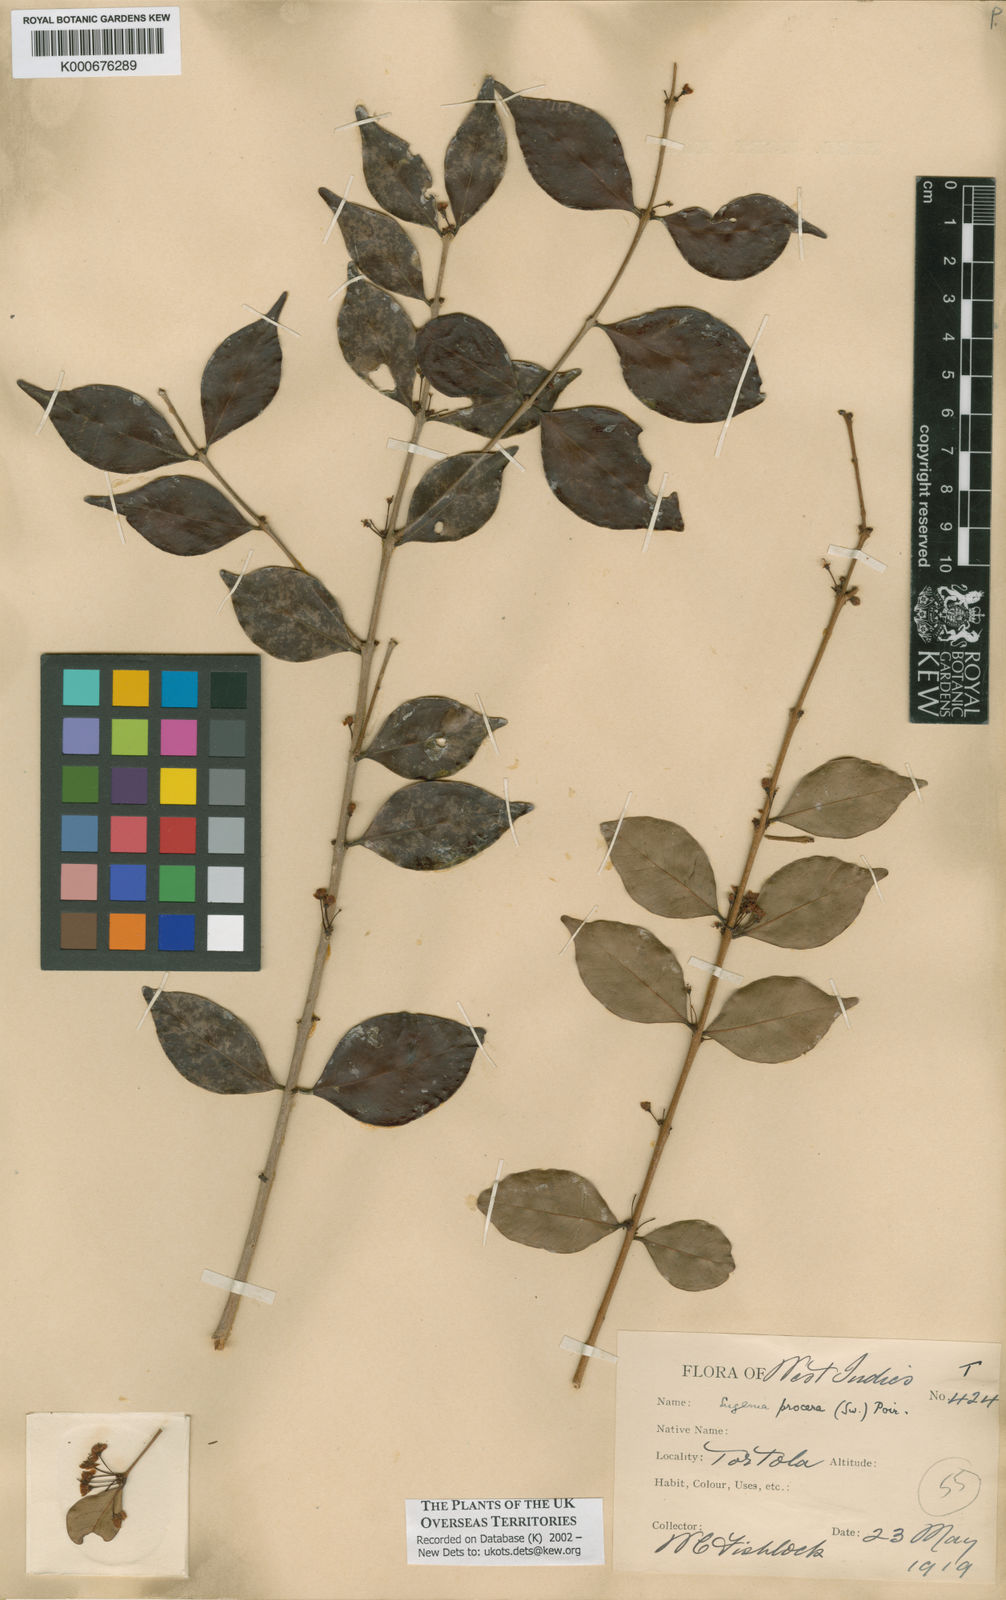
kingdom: Plantae
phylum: Tracheophyta
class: Magnoliopsida
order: Myrtales
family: Myrtaceae
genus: Eugenia
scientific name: Eugenia procera
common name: Bastard blackberry
